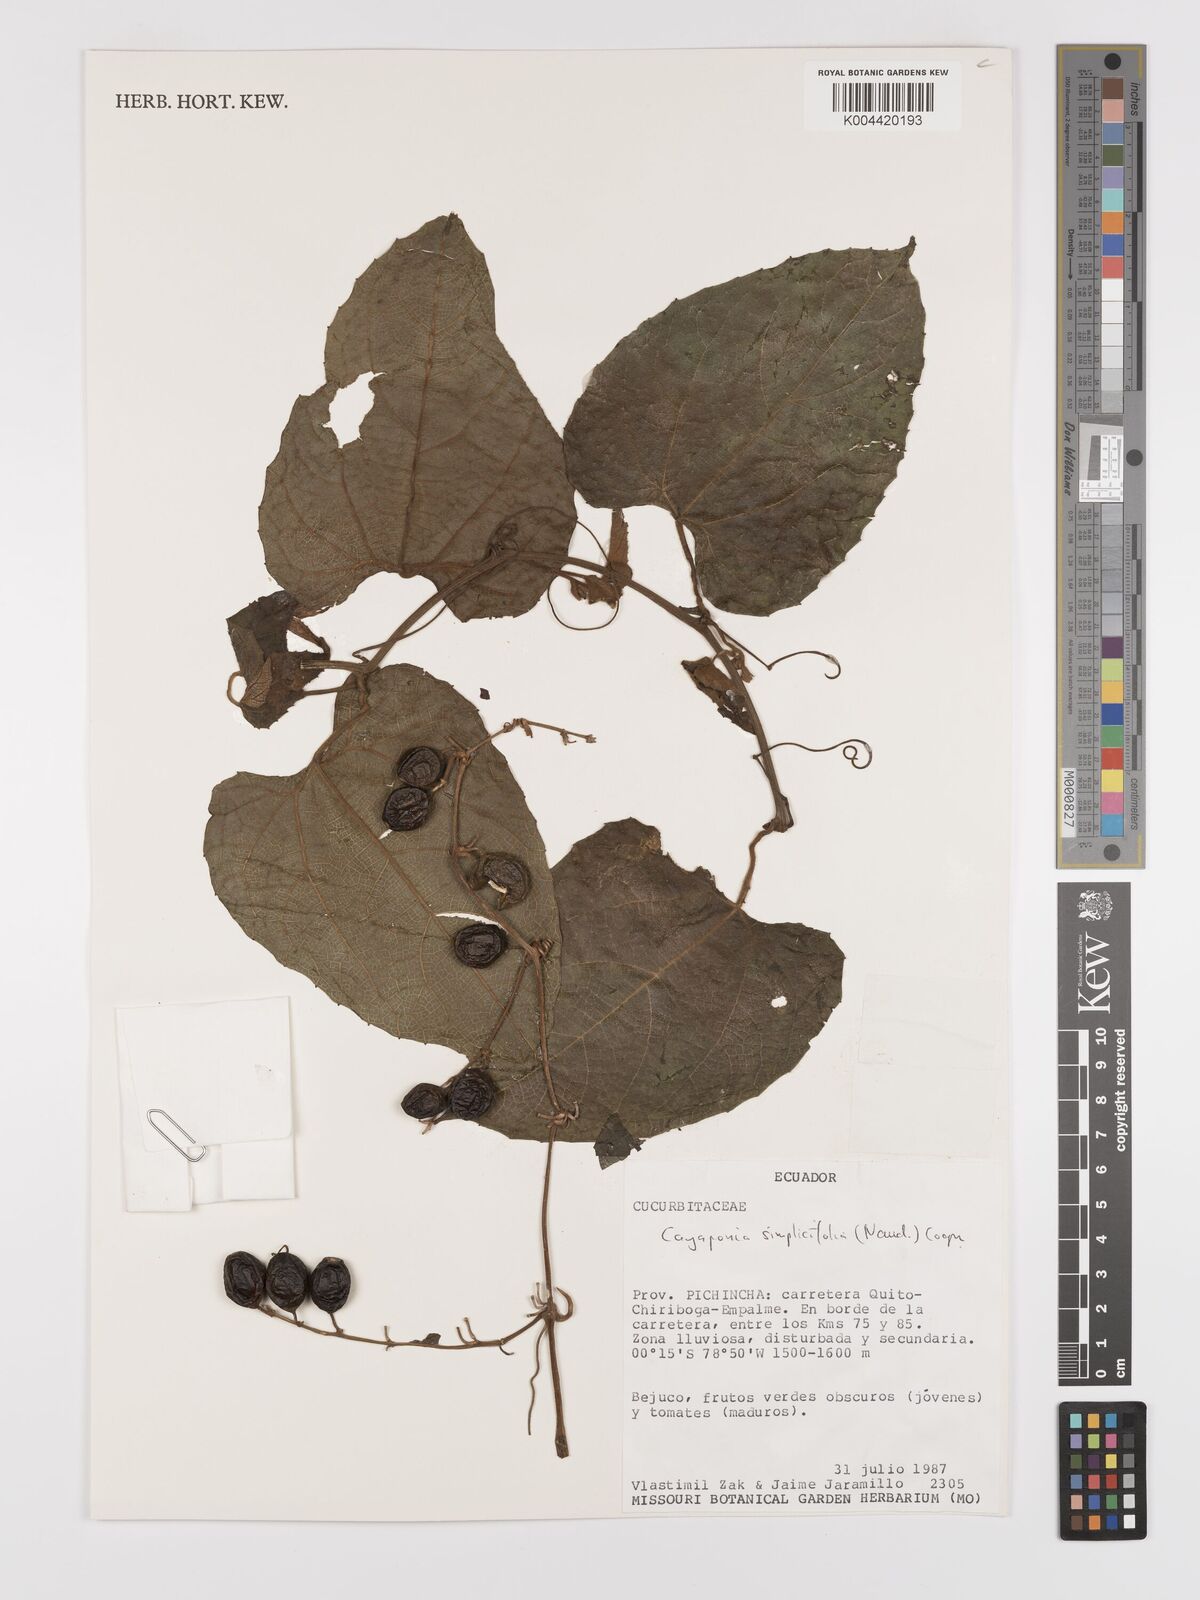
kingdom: Plantae
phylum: Tracheophyta
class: Magnoliopsida
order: Cucurbitales
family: Cucurbitaceae
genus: Cayaponia
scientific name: Cayaponia simplicifolia
